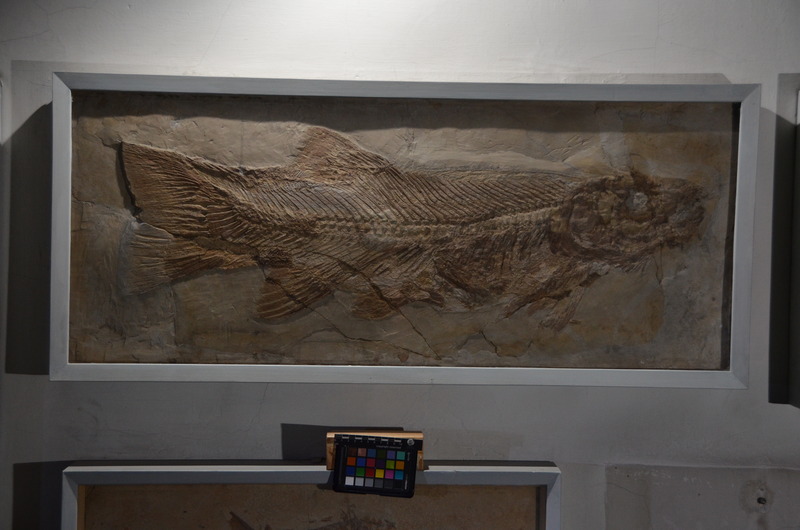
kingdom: Animalia
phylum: Chordata
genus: Callopterus
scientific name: Callopterus armata
